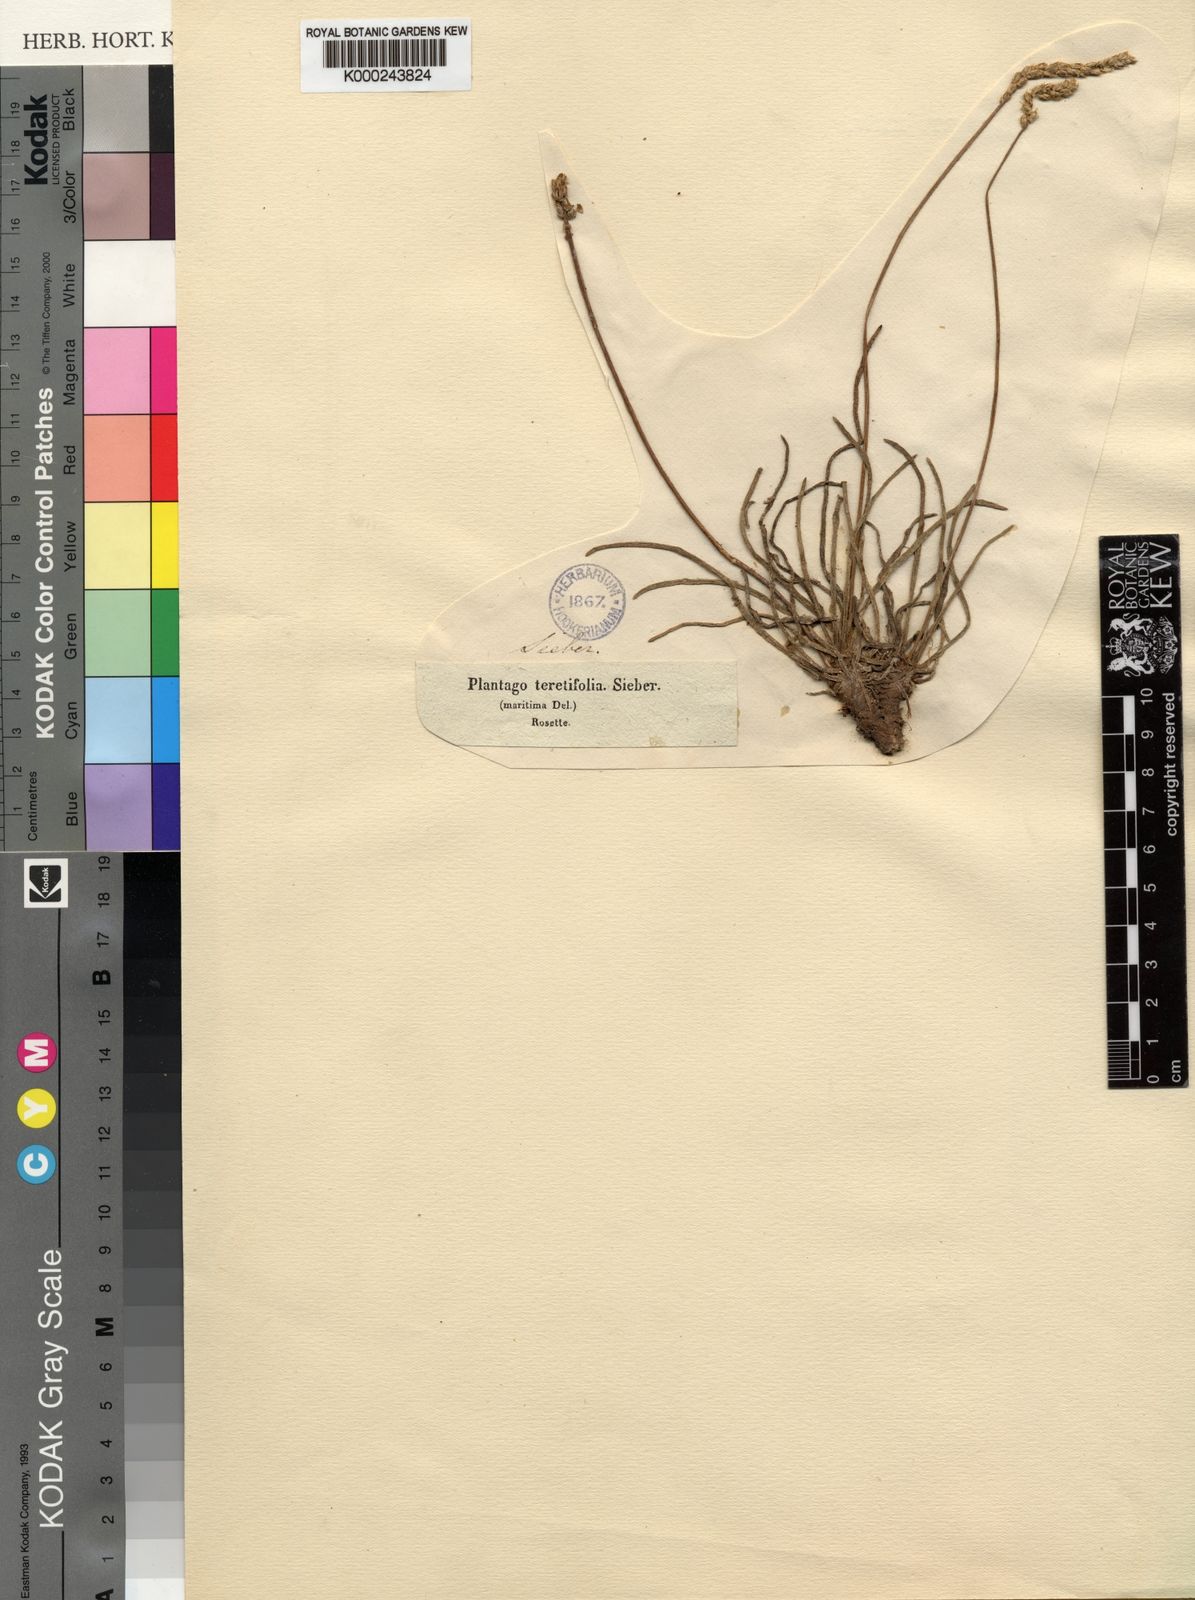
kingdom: Plantae
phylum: Tracheophyta
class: Magnoliopsida
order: Lamiales
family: Plantaginaceae
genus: Plantago
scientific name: Plantago
